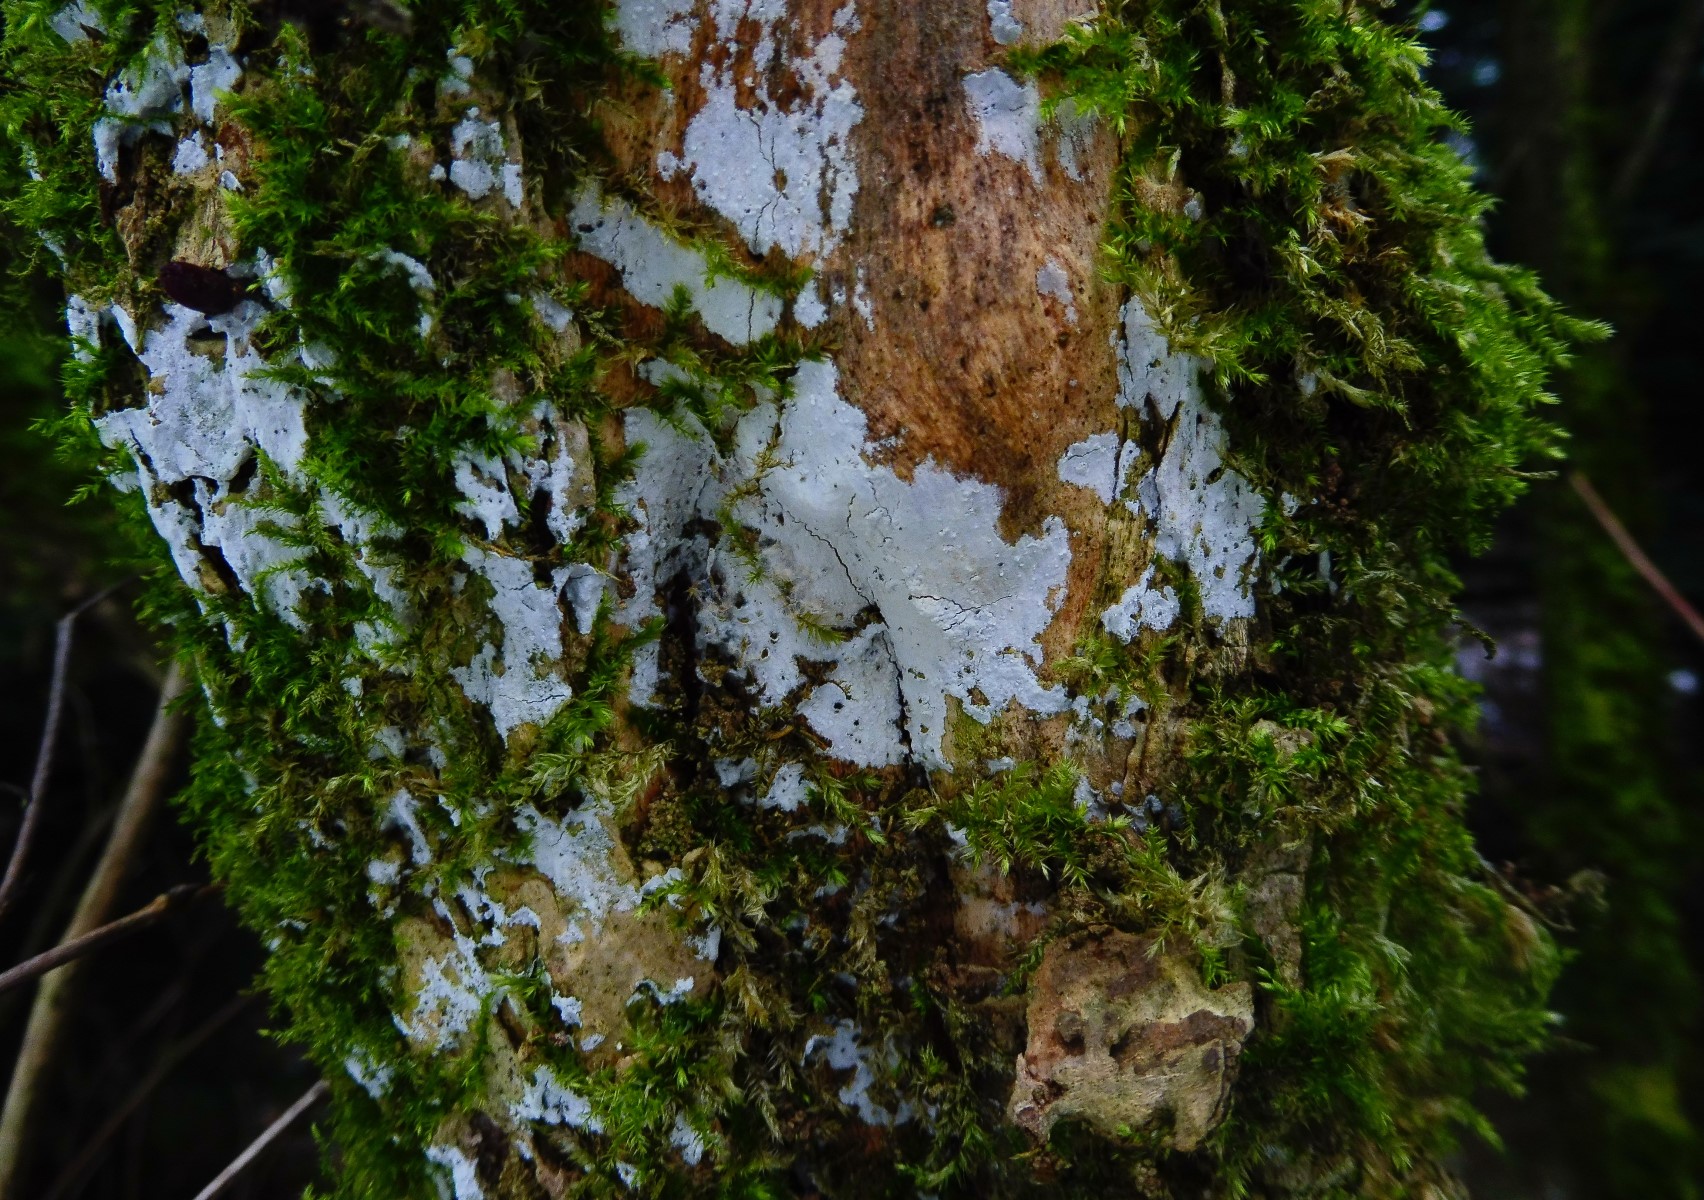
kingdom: Fungi
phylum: Basidiomycota
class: Agaricomycetes
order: Corticiales
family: Corticiaceae
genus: Lyomyces
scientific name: Lyomyces sambuci
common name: almindelig hyldehinde
